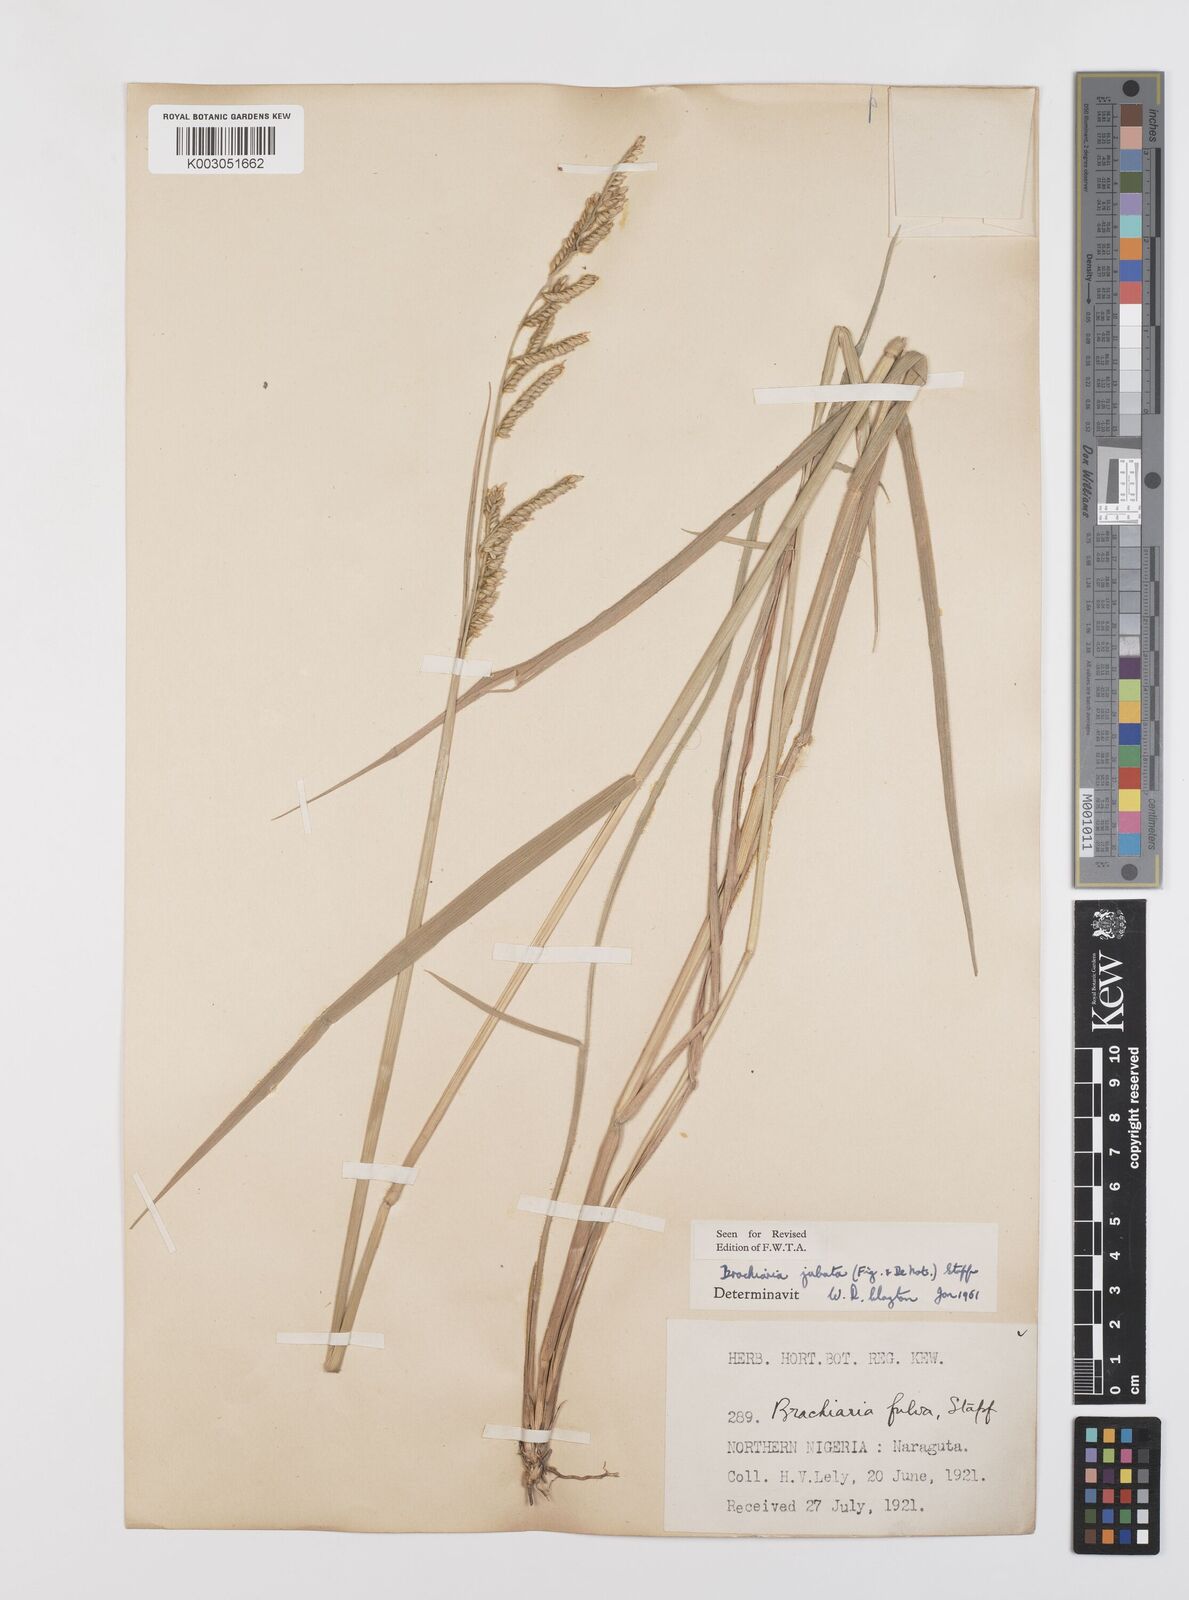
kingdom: Plantae
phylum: Tracheophyta
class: Liliopsida
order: Poales
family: Poaceae
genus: Urochloa
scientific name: Urochloa jubata
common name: Buffalograss
